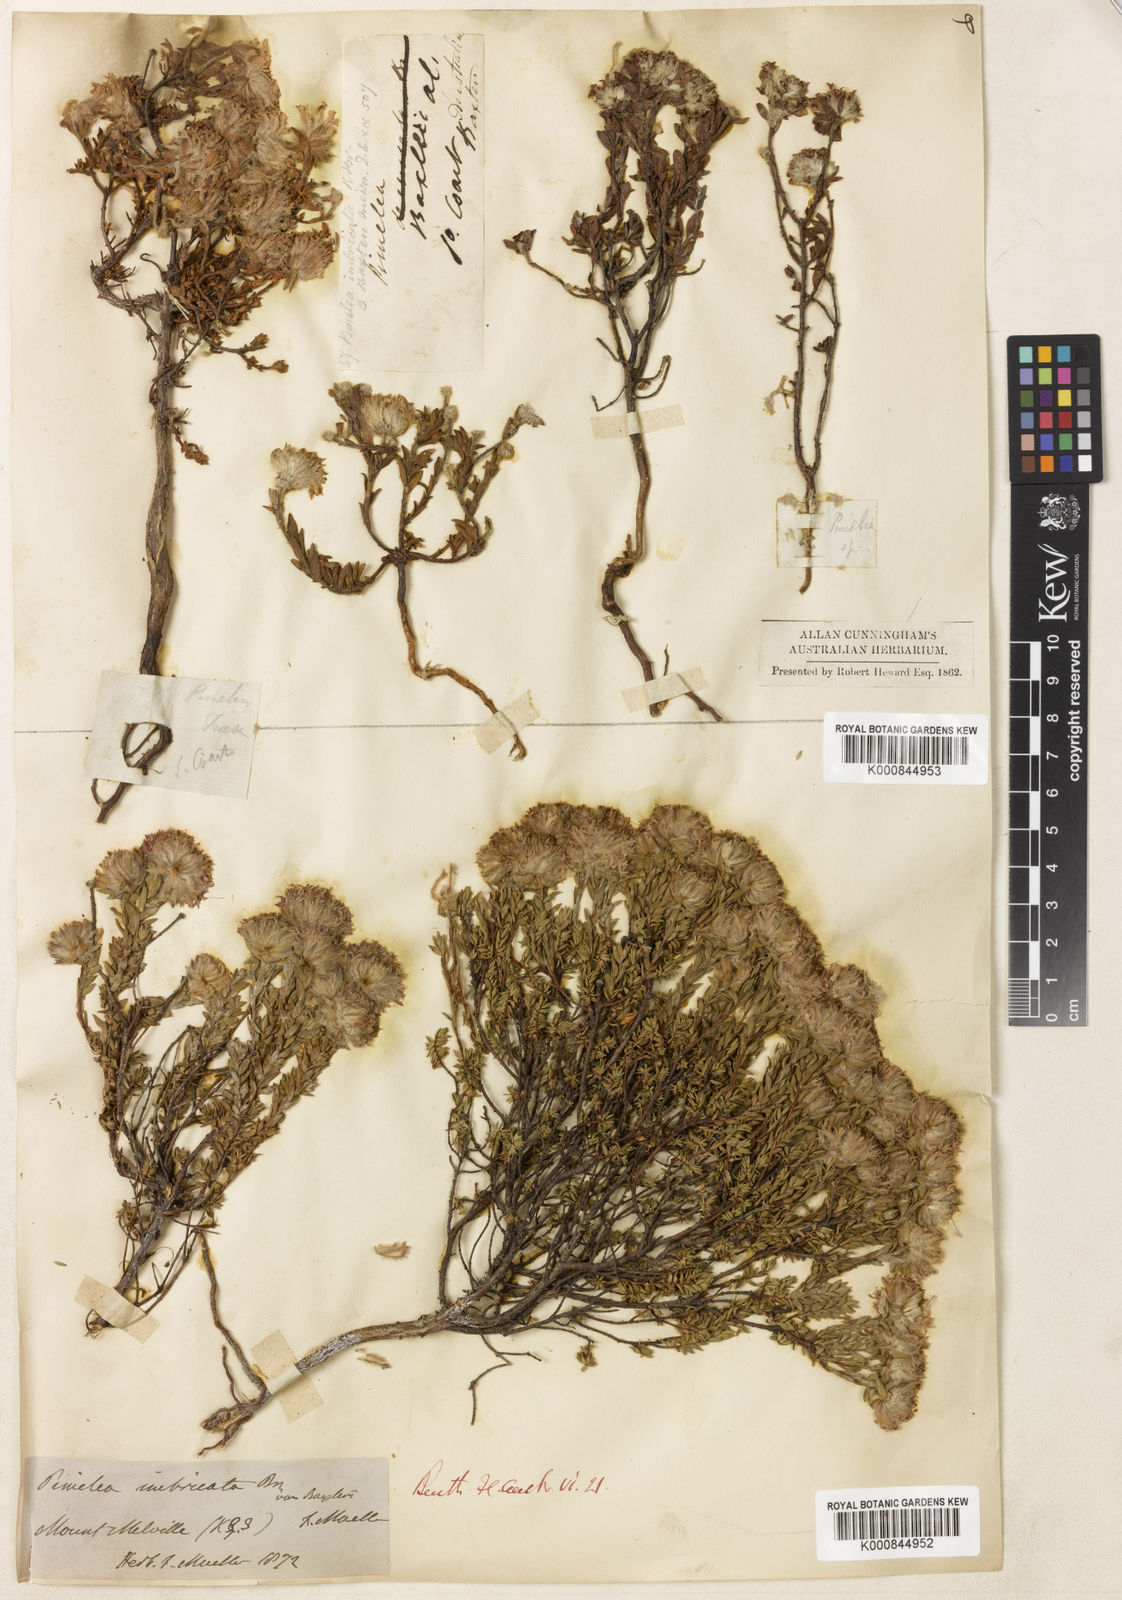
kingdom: Plantae
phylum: Tracheophyta
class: Magnoliopsida
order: Malvales
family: Thymelaeaceae
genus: Pimelea
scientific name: Pimelea imbricata
